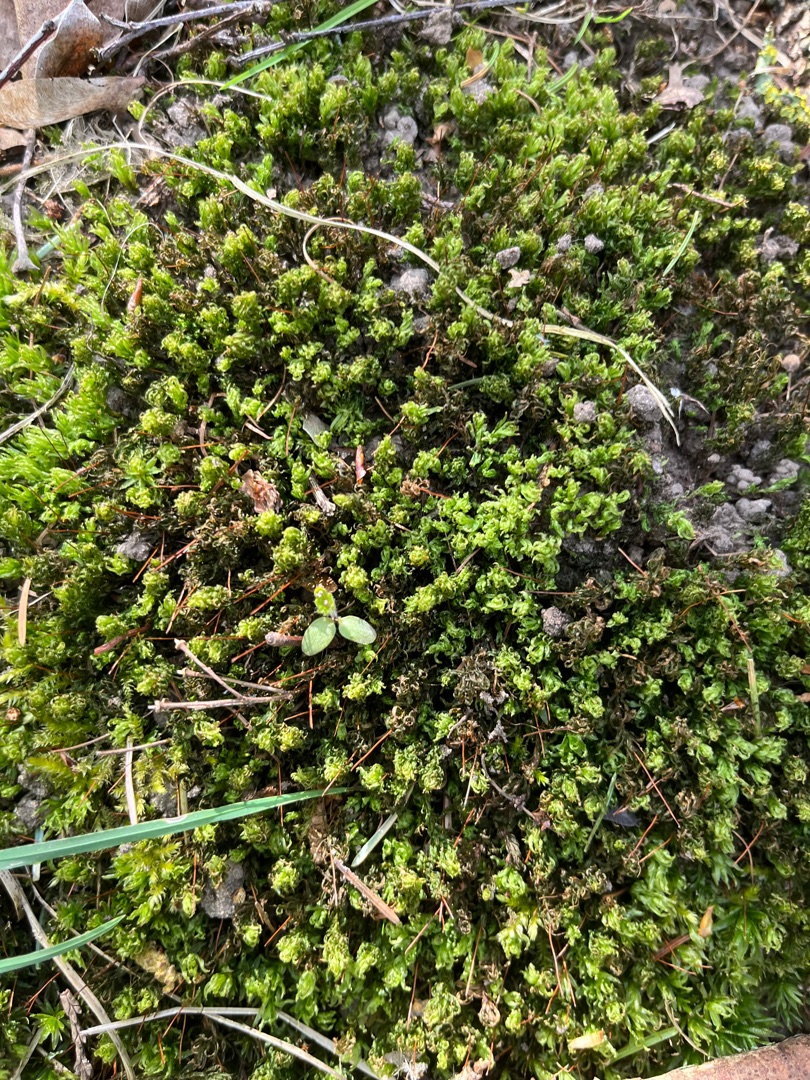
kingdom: Plantae
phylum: Bryophyta
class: Polytrichopsida
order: Polytrichales
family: Polytrichaceae
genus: Atrichum
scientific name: Atrichum undulatum
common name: Bølget katrinemos
